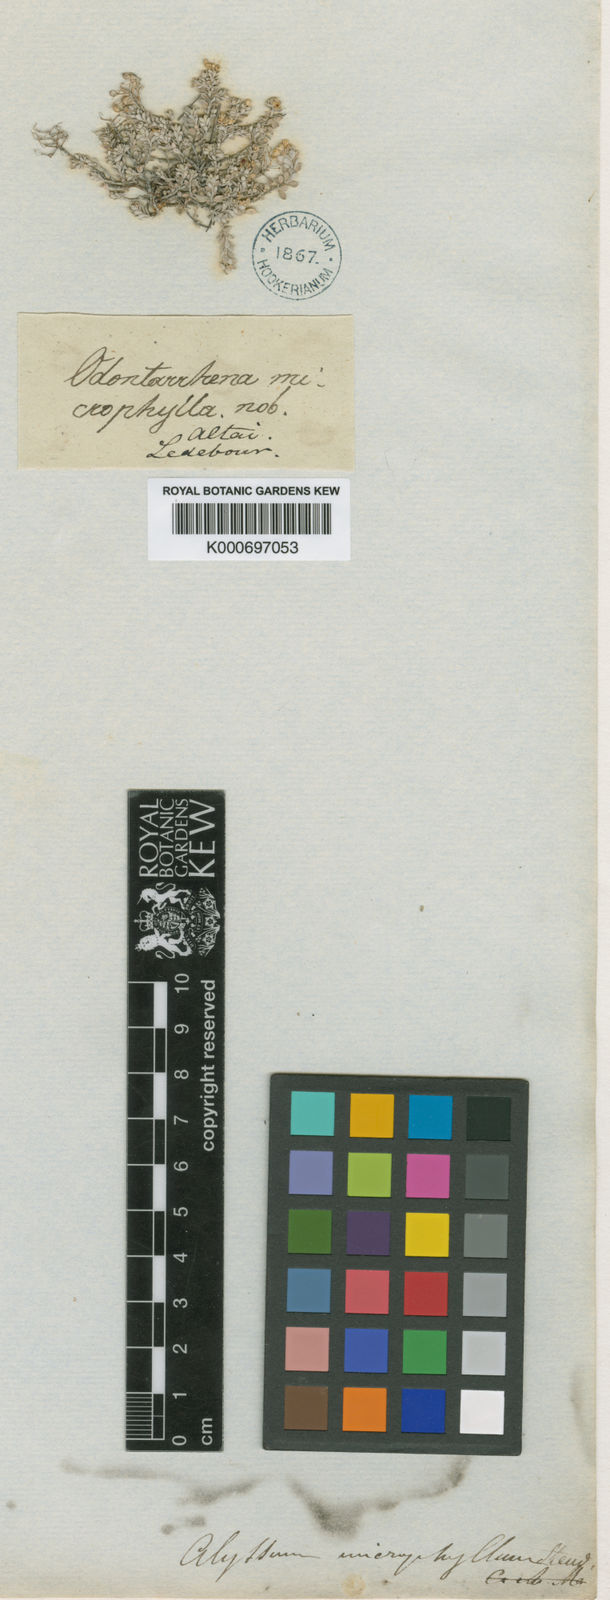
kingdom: Plantae
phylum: Tracheophyta
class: Magnoliopsida
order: Brassicales
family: Brassicaceae
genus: Odontarrhena
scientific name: Odontarrhena obovata
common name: American alyssum
